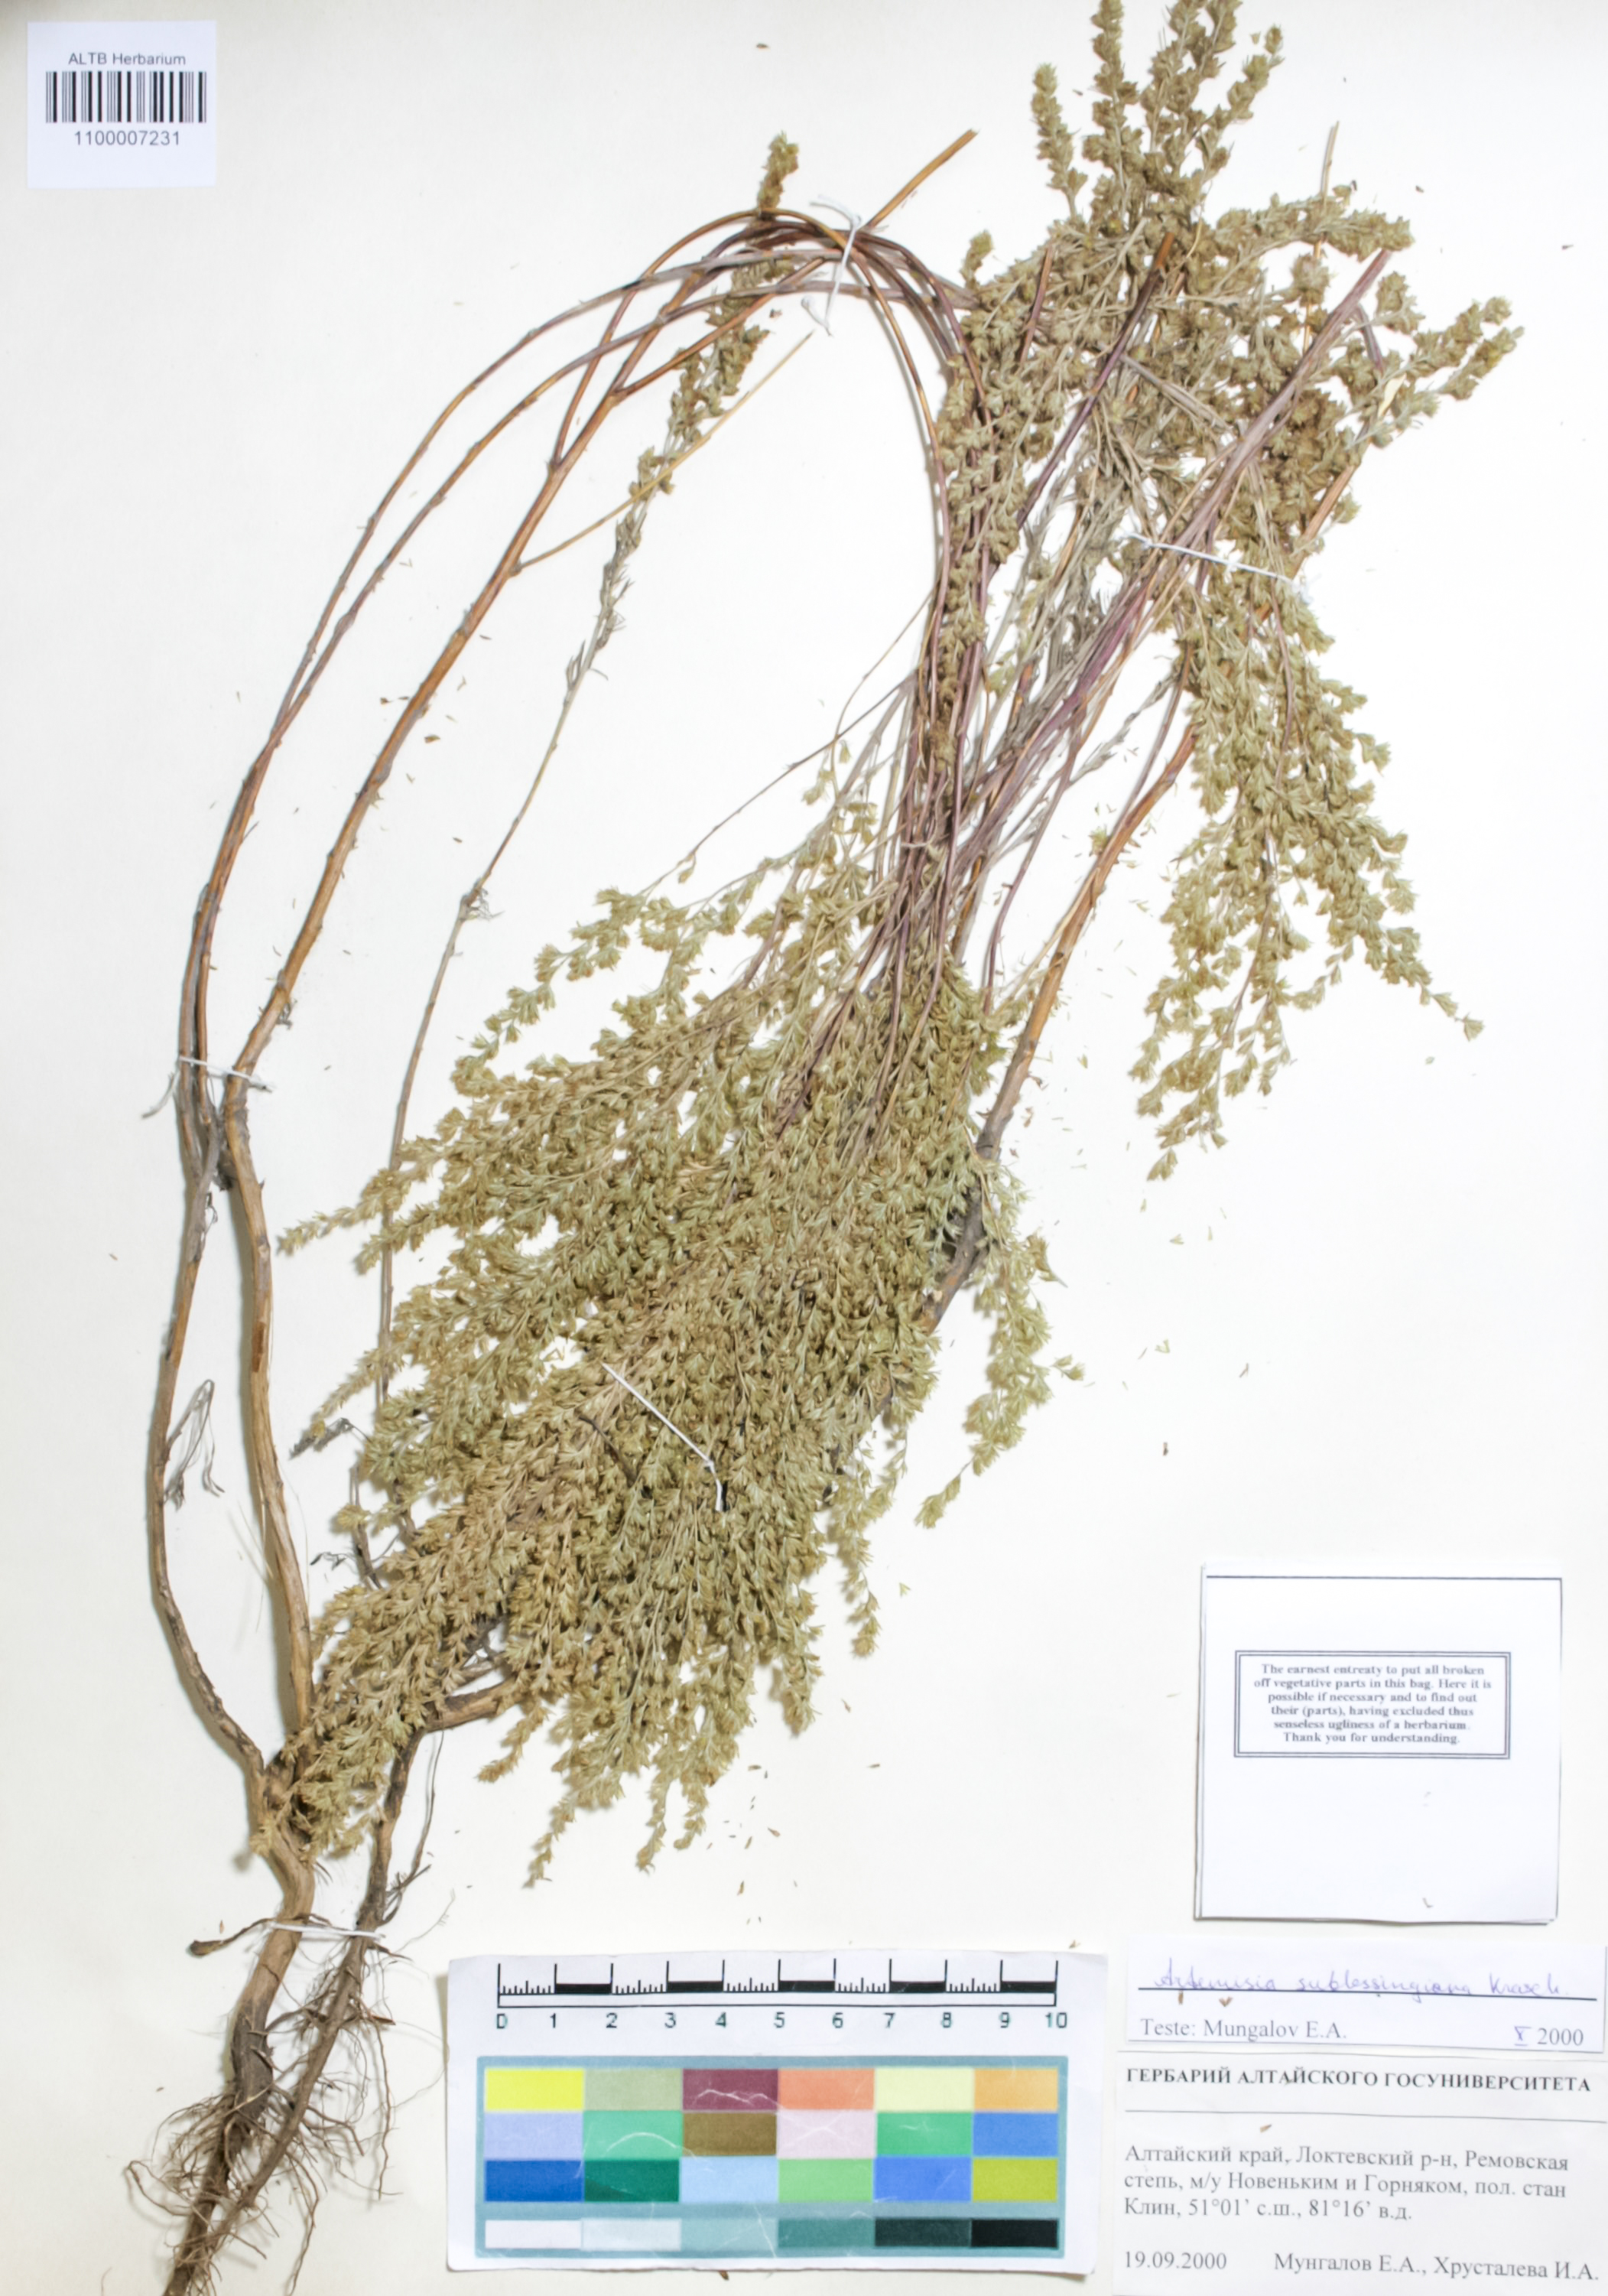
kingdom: Plantae
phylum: Tracheophyta
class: Magnoliopsida
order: Asterales
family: Asteraceae
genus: Artemisia
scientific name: Artemisia sublessingiana
